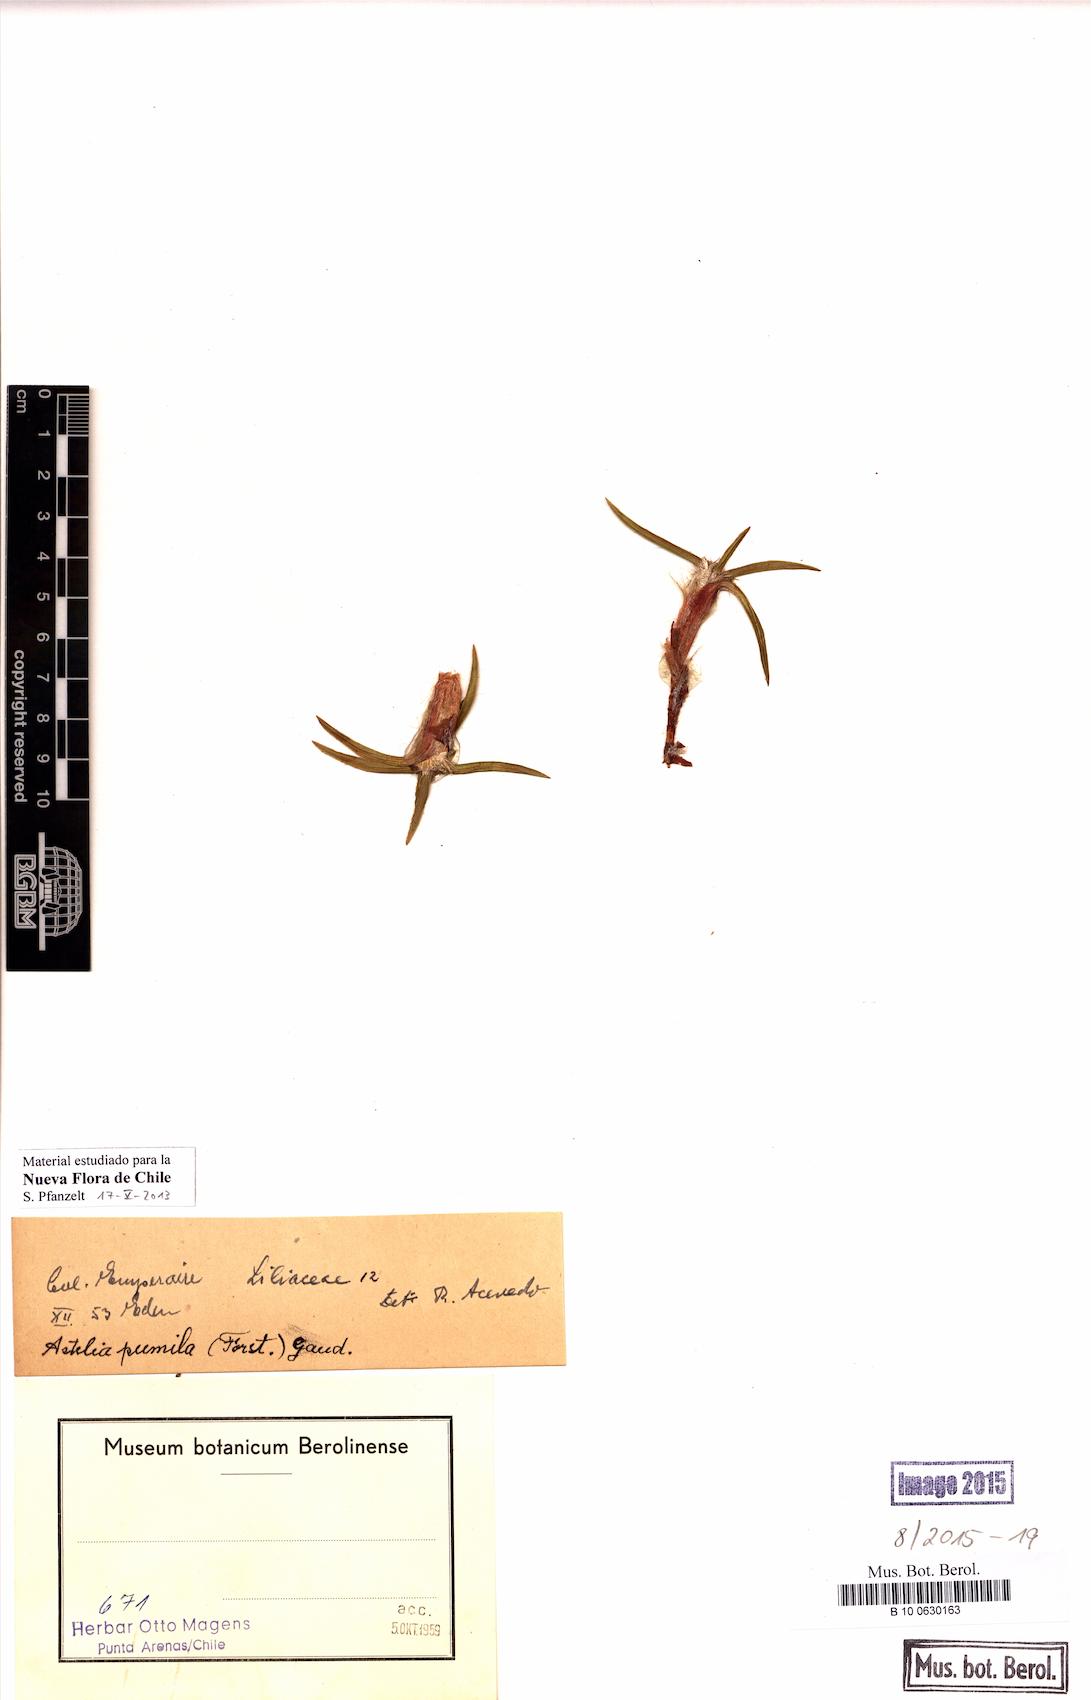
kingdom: Plantae
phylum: Tracheophyta
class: Liliopsida
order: Asparagales
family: Asteliaceae
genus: Astelia
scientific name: Astelia pumila
